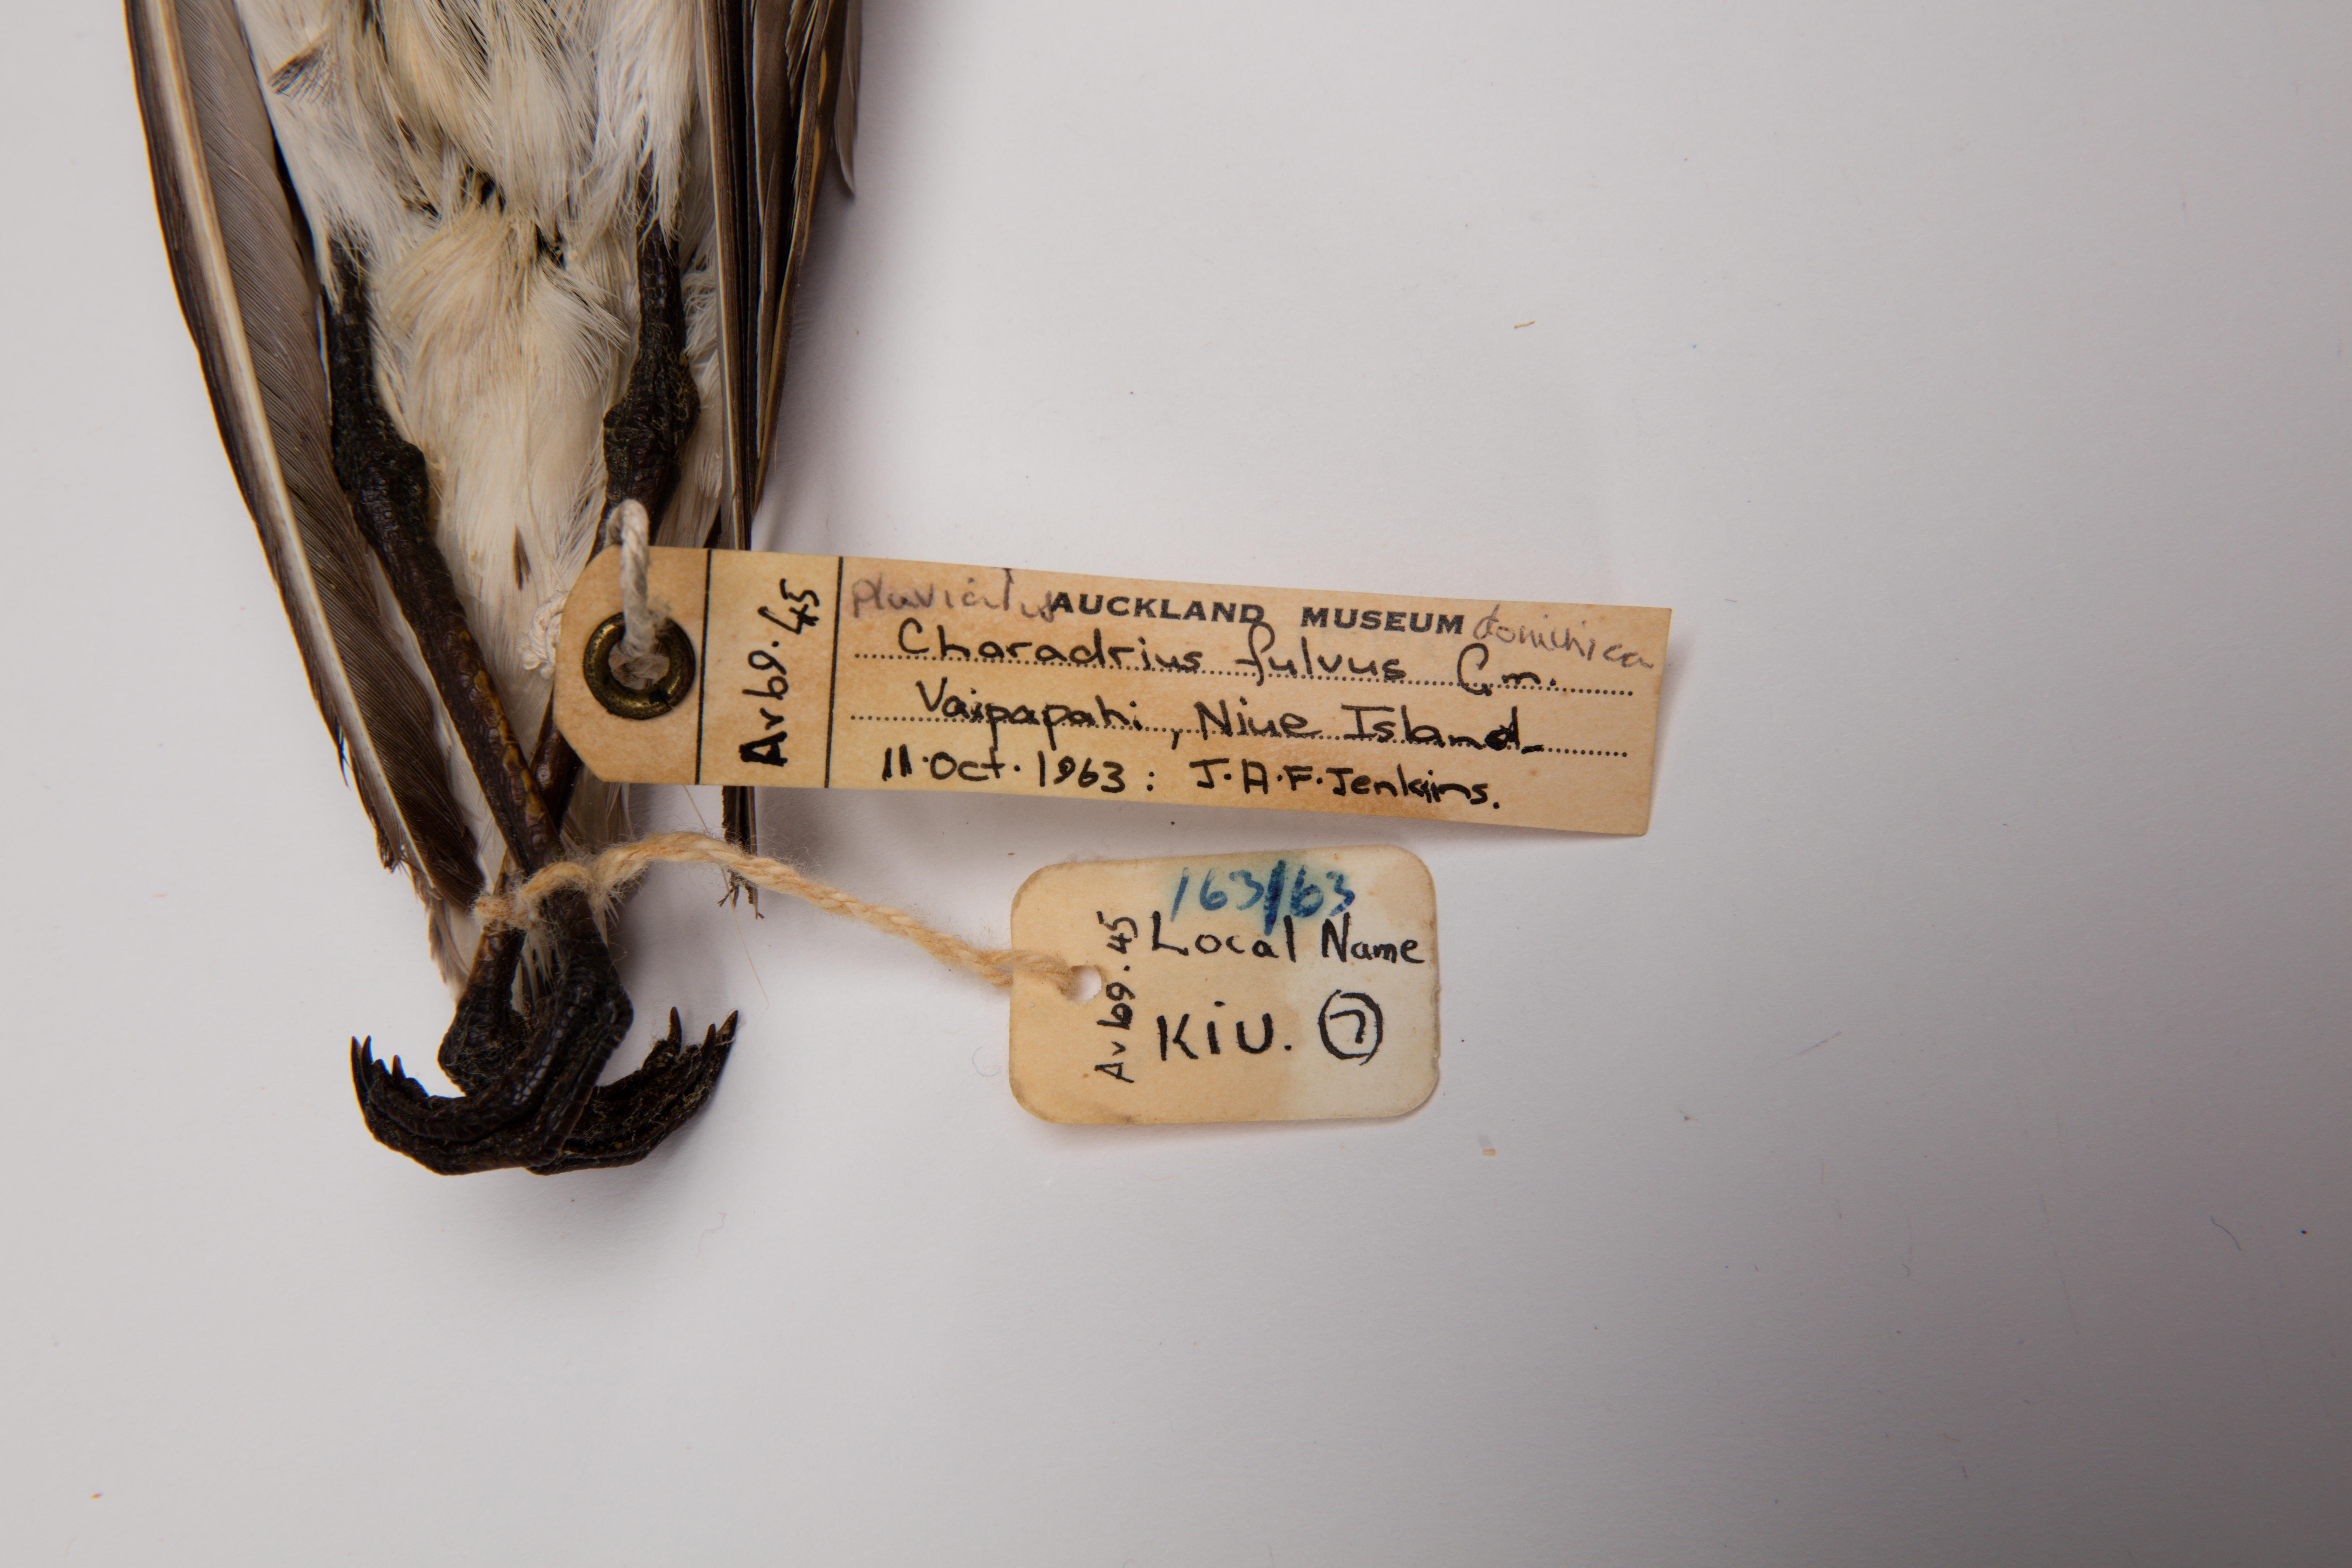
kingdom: Animalia
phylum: Chordata
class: Aves
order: Charadriiformes
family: Charadriidae
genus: Pluvialis
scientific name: Pluvialis fulva
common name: Pacific golden plover
